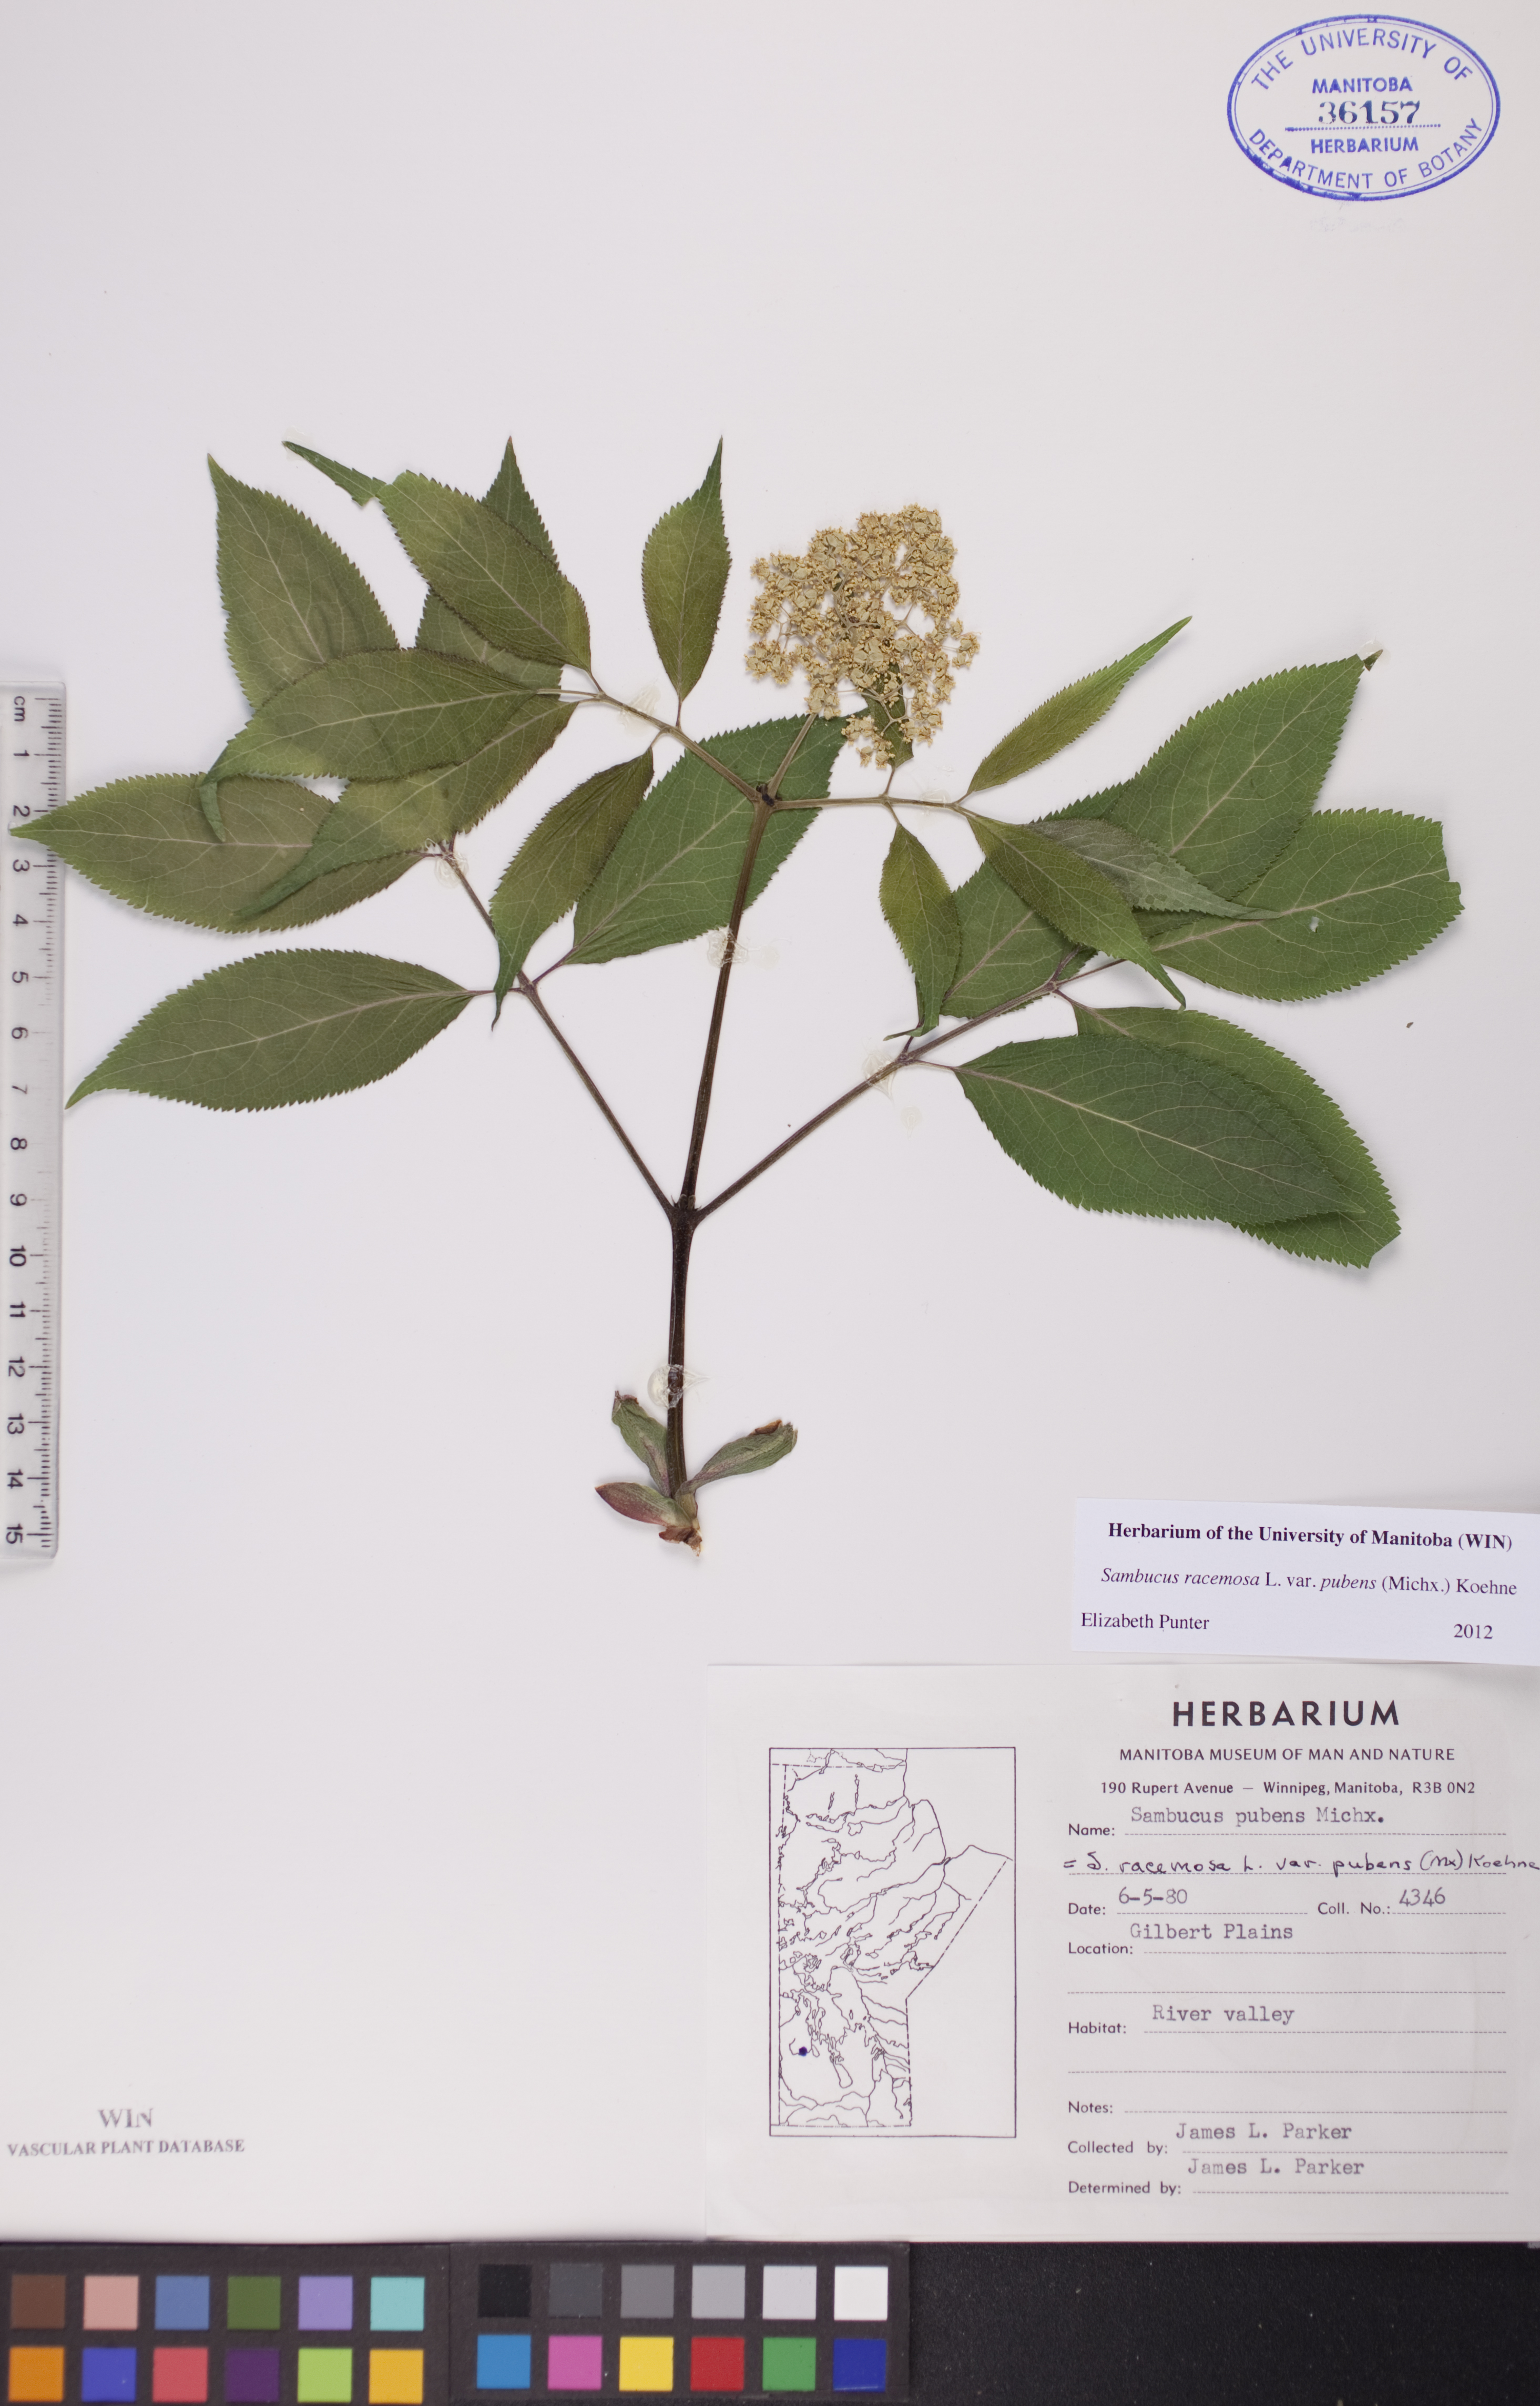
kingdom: Plantae
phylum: Tracheophyta
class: Magnoliopsida
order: Dipsacales
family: Viburnaceae
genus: Sambucus
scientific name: Sambucus racemosa
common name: Red-berried elder
